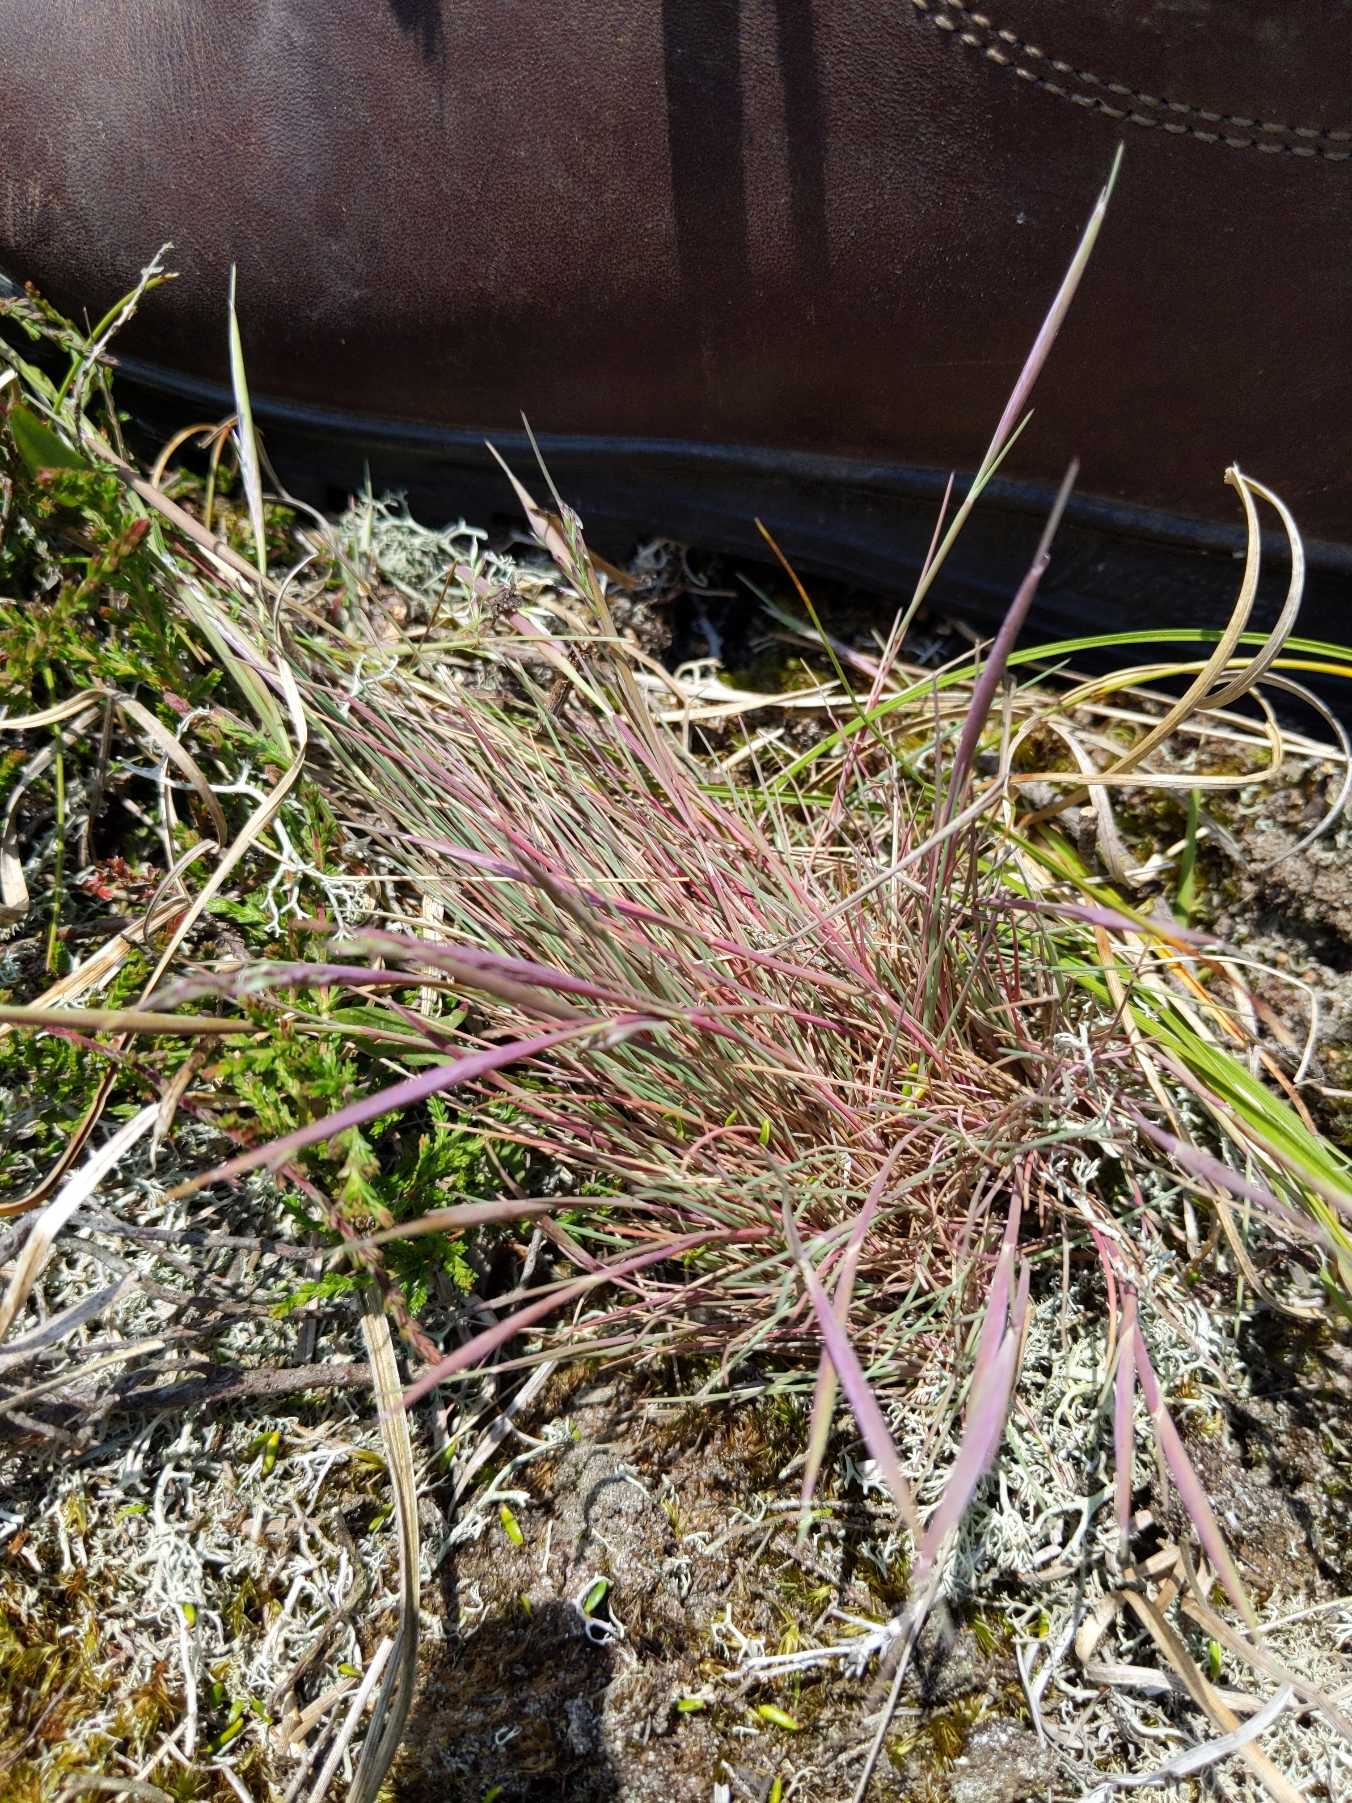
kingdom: Plantae
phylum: Tracheophyta
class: Liliopsida
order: Poales
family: Poaceae
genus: Corynephorus
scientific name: Corynephorus canescens
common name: Sandskæg
